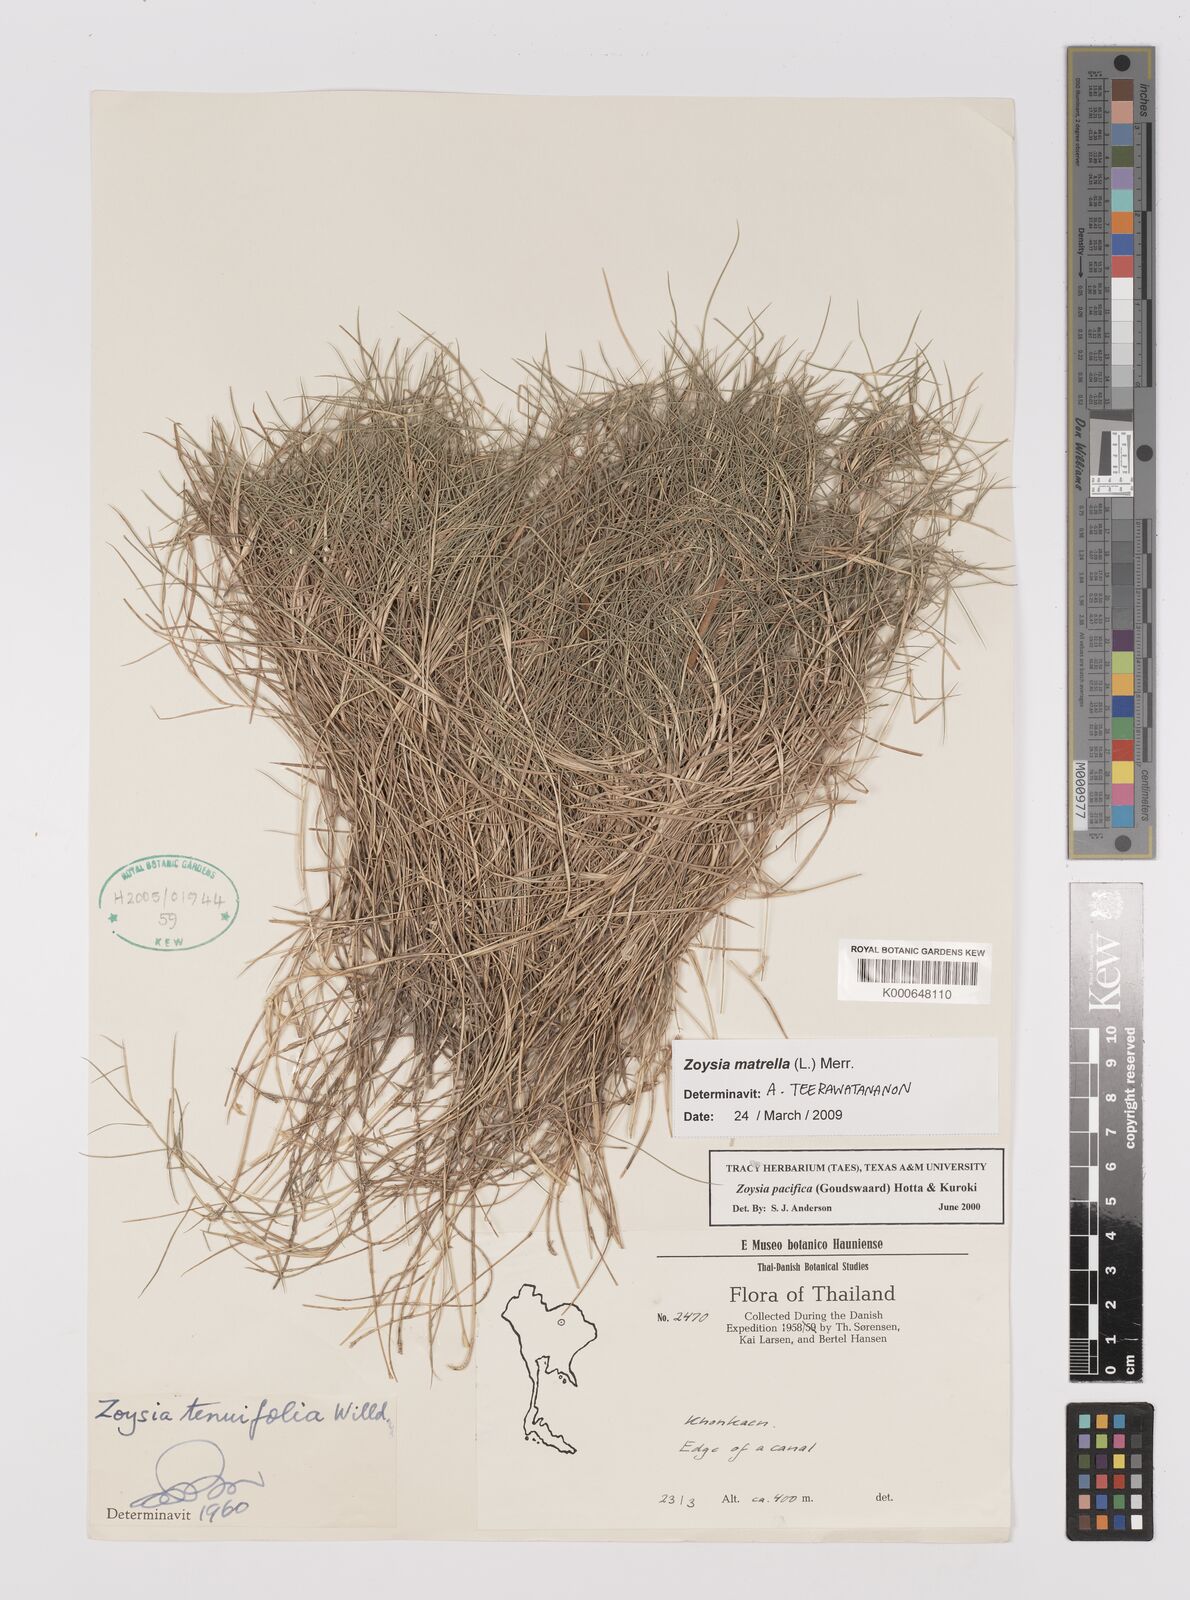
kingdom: Plantae
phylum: Tracheophyta
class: Liliopsida
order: Poales
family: Poaceae
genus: Zoysia
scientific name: Zoysia matrella
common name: Manila grass
